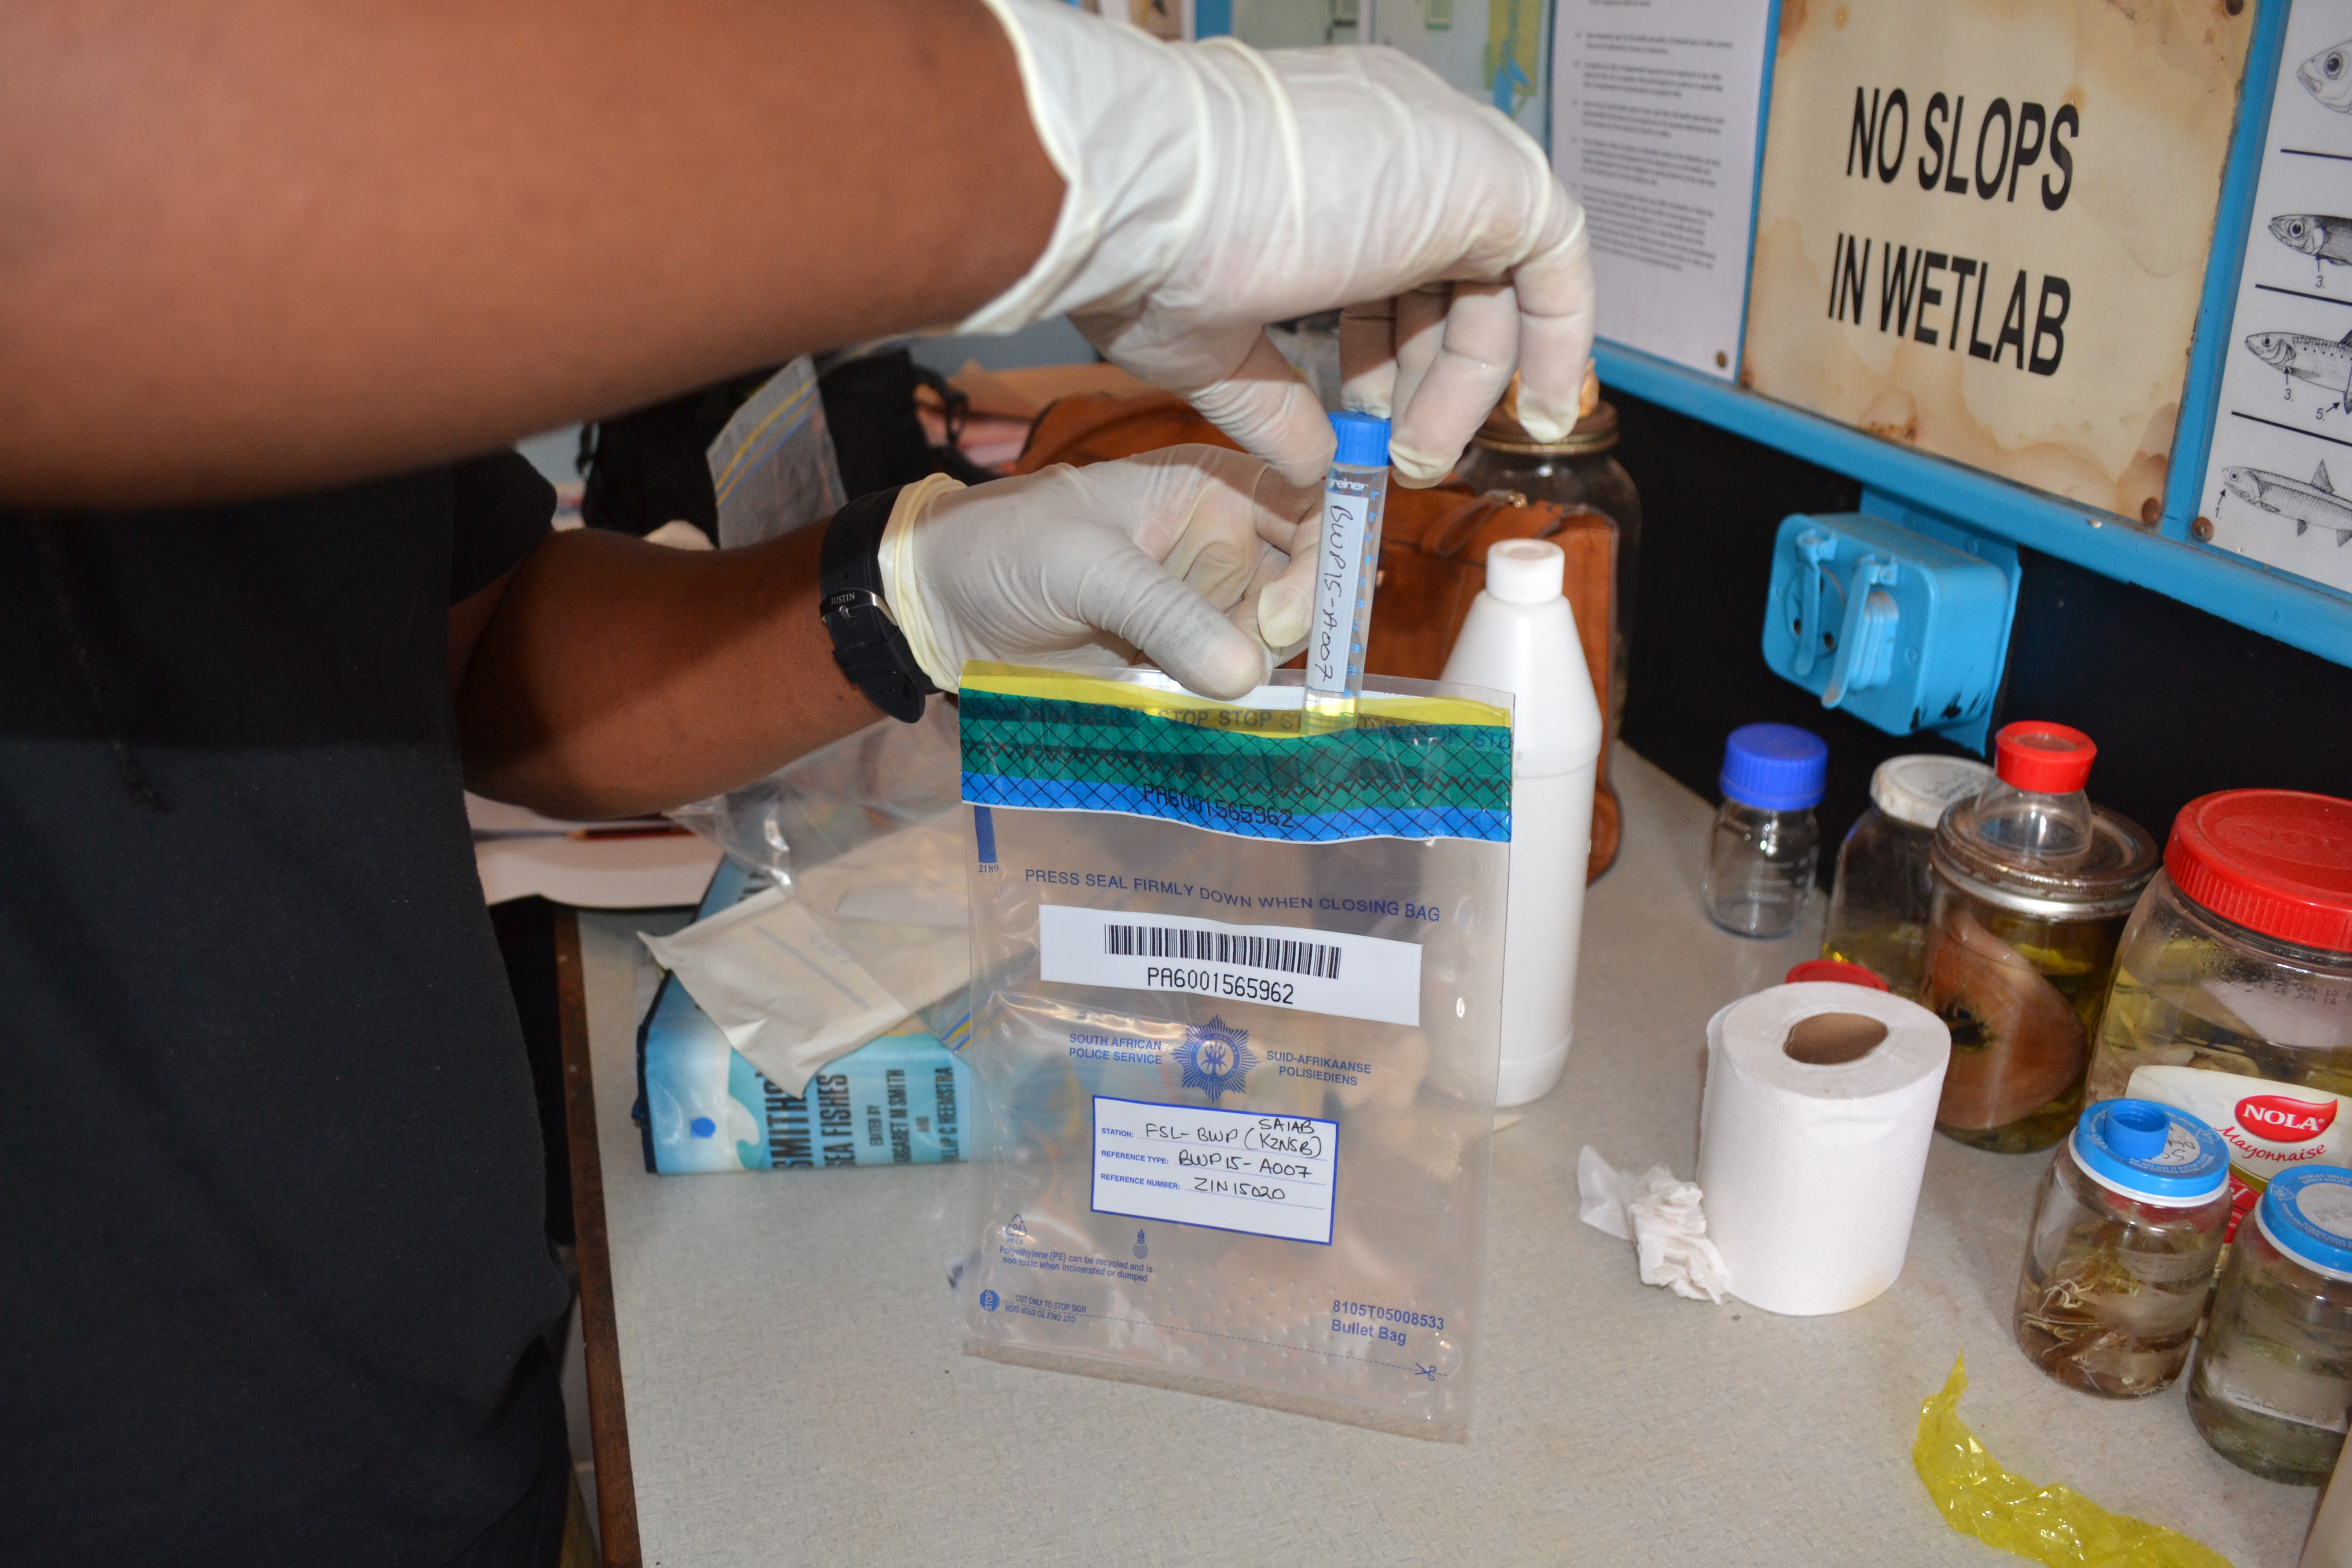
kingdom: Animalia
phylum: Chordata
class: Elasmobranchii
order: Carcharhiniformes
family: Carcharhinidae
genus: Carcharhinus
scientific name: Carcharhinus obscurus
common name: Dusky shark
